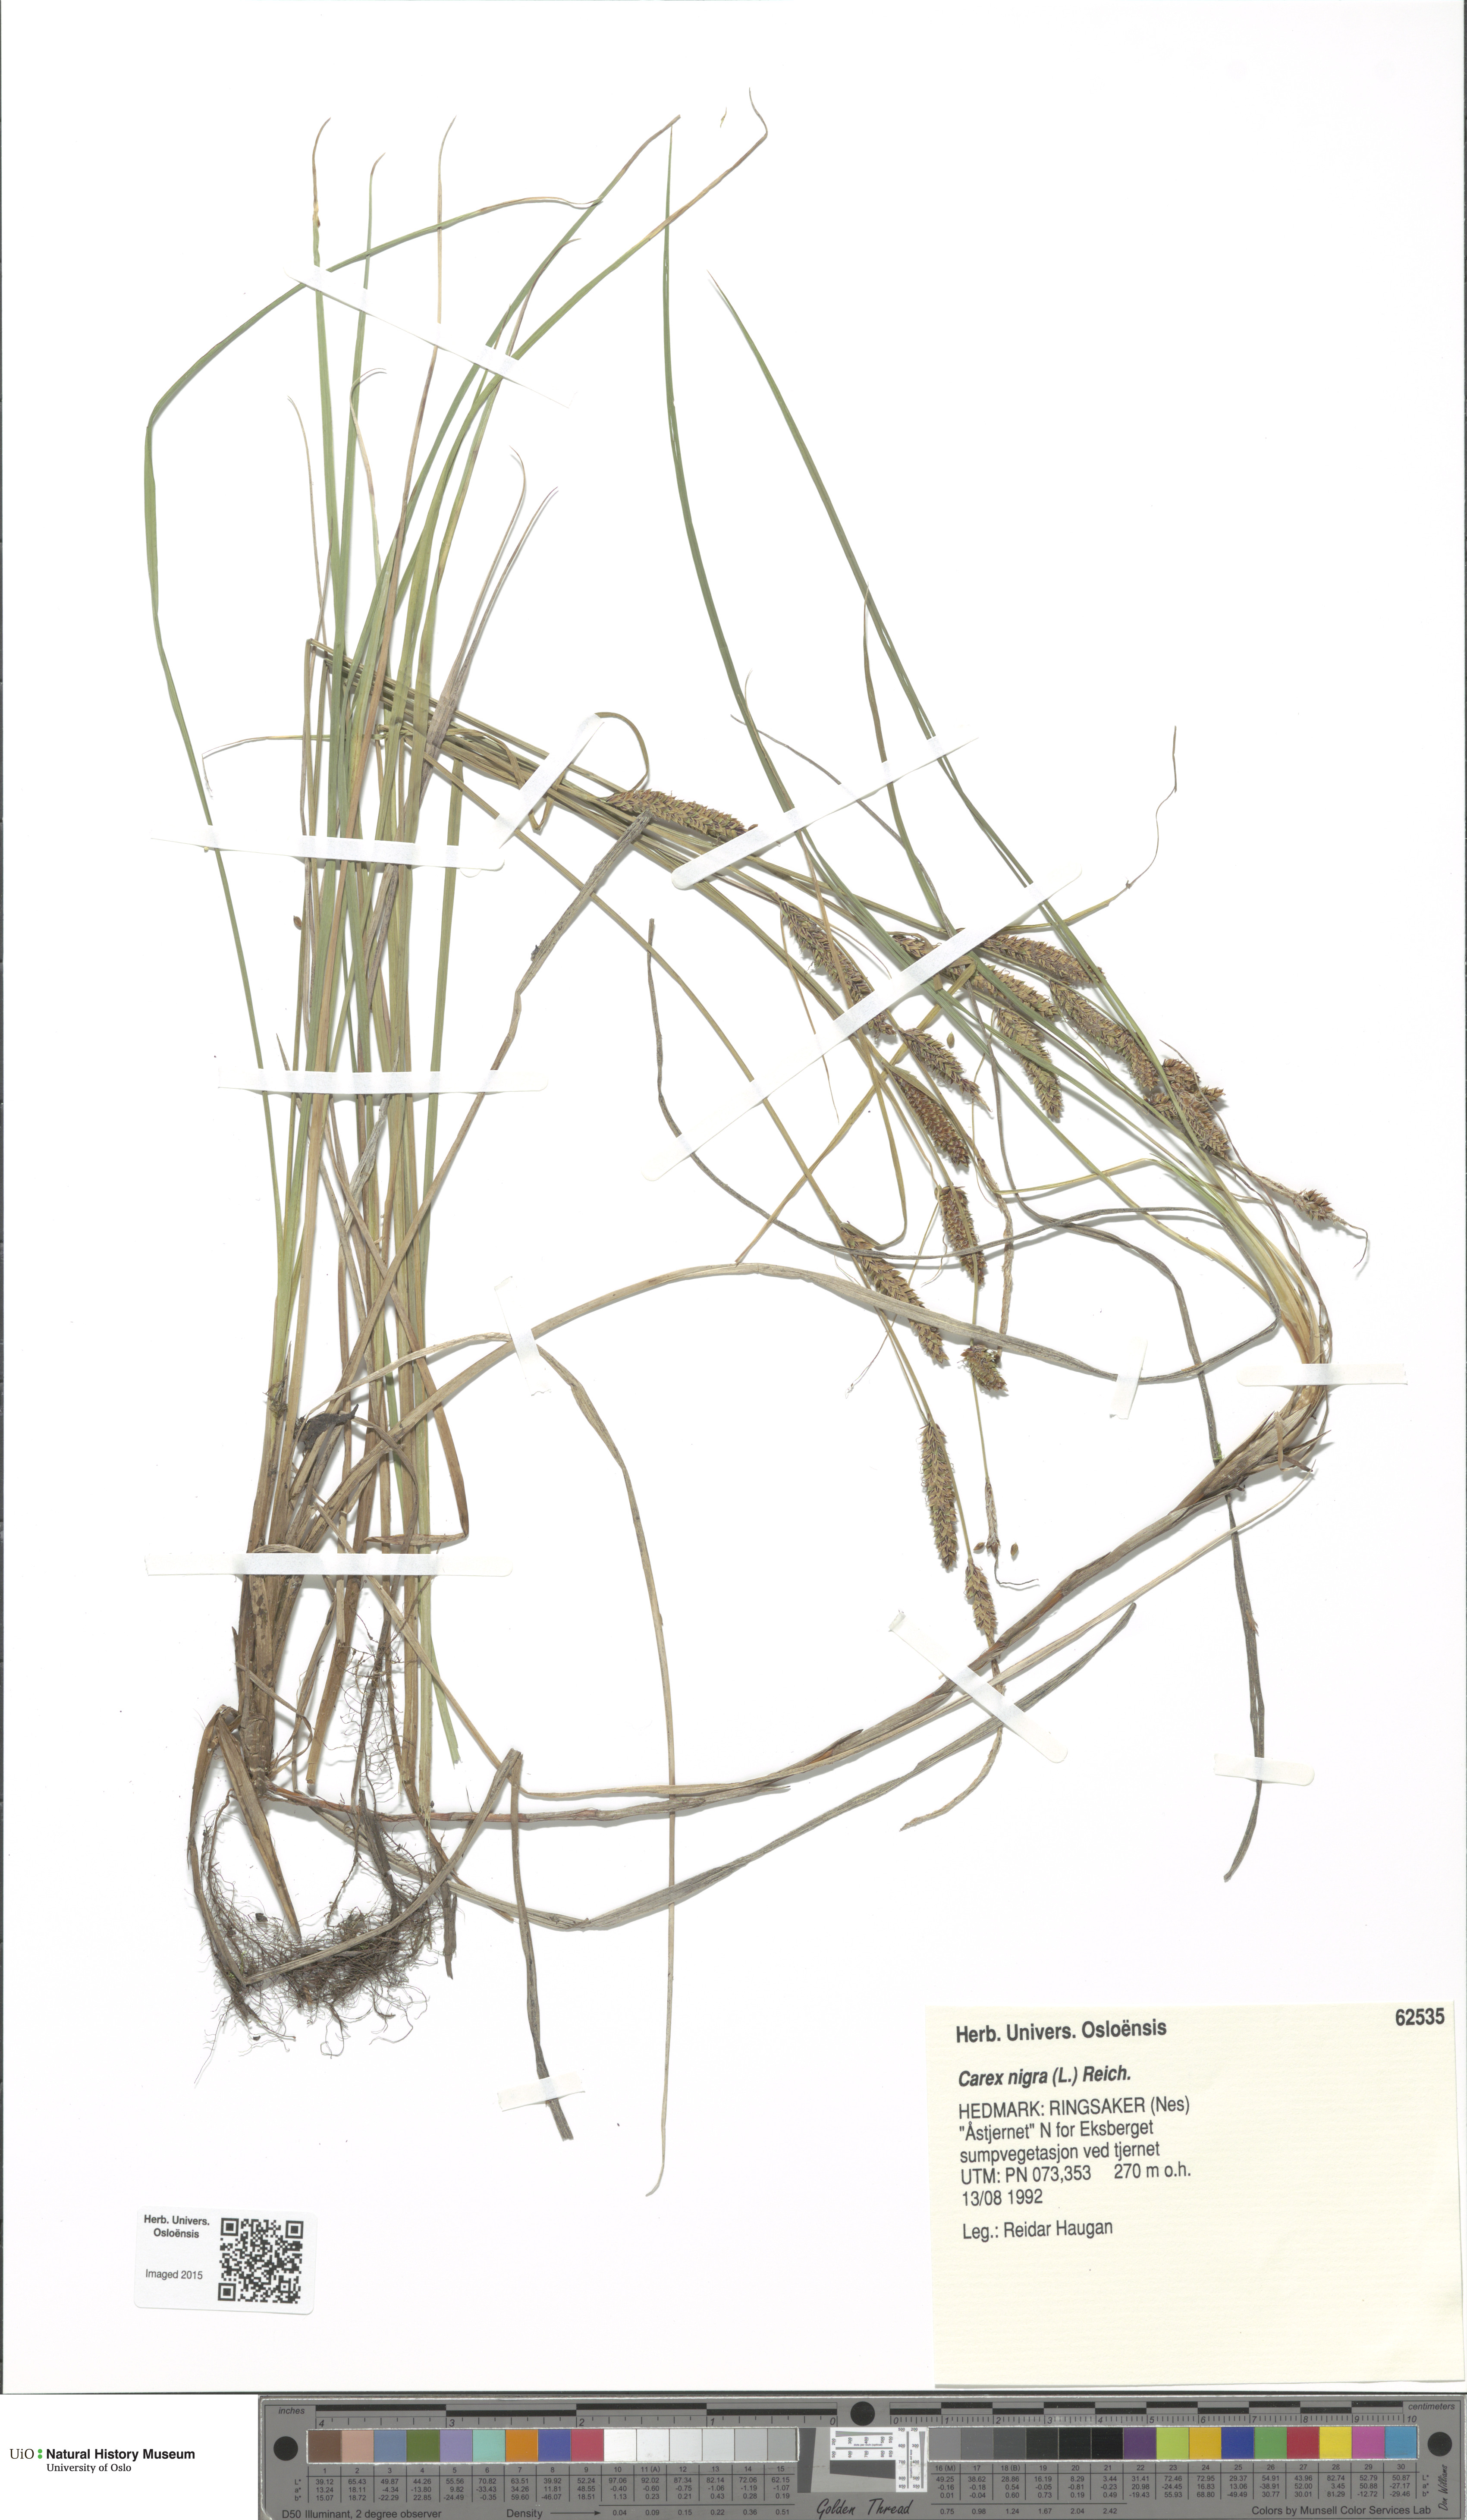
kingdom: Plantae
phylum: Tracheophyta
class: Liliopsida
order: Poales
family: Cyperaceae
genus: Carex
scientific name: Carex nigra
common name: Common sedge
